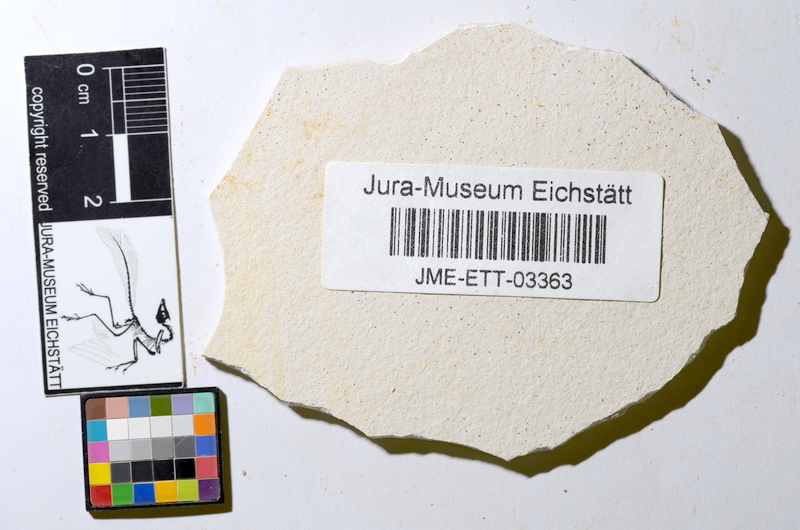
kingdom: Animalia
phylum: Chordata
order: Salmoniformes
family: Orthogonikleithridae
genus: Orthogonikleithrus
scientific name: Orthogonikleithrus hoelli
